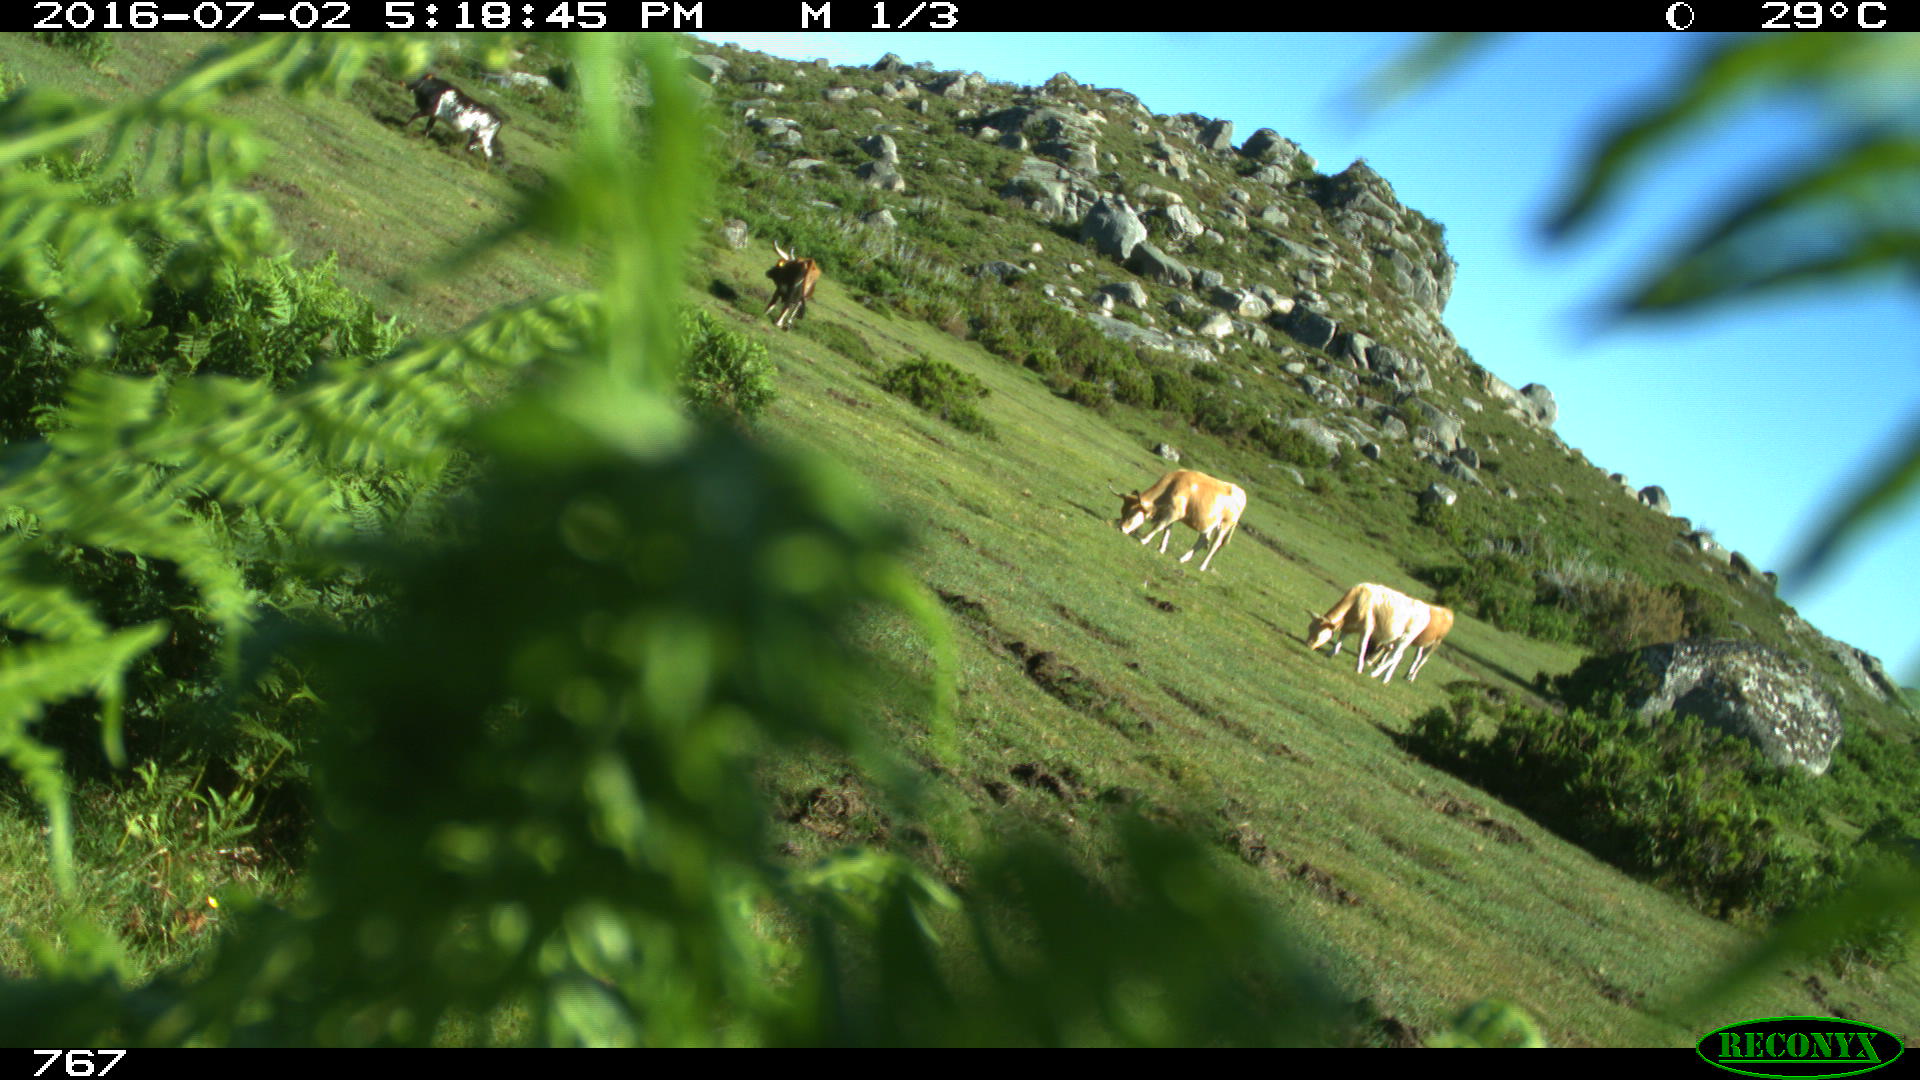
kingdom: Animalia
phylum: Chordata
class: Mammalia
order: Artiodactyla
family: Bovidae
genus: Bos
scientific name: Bos taurus
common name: Domesticated cattle
